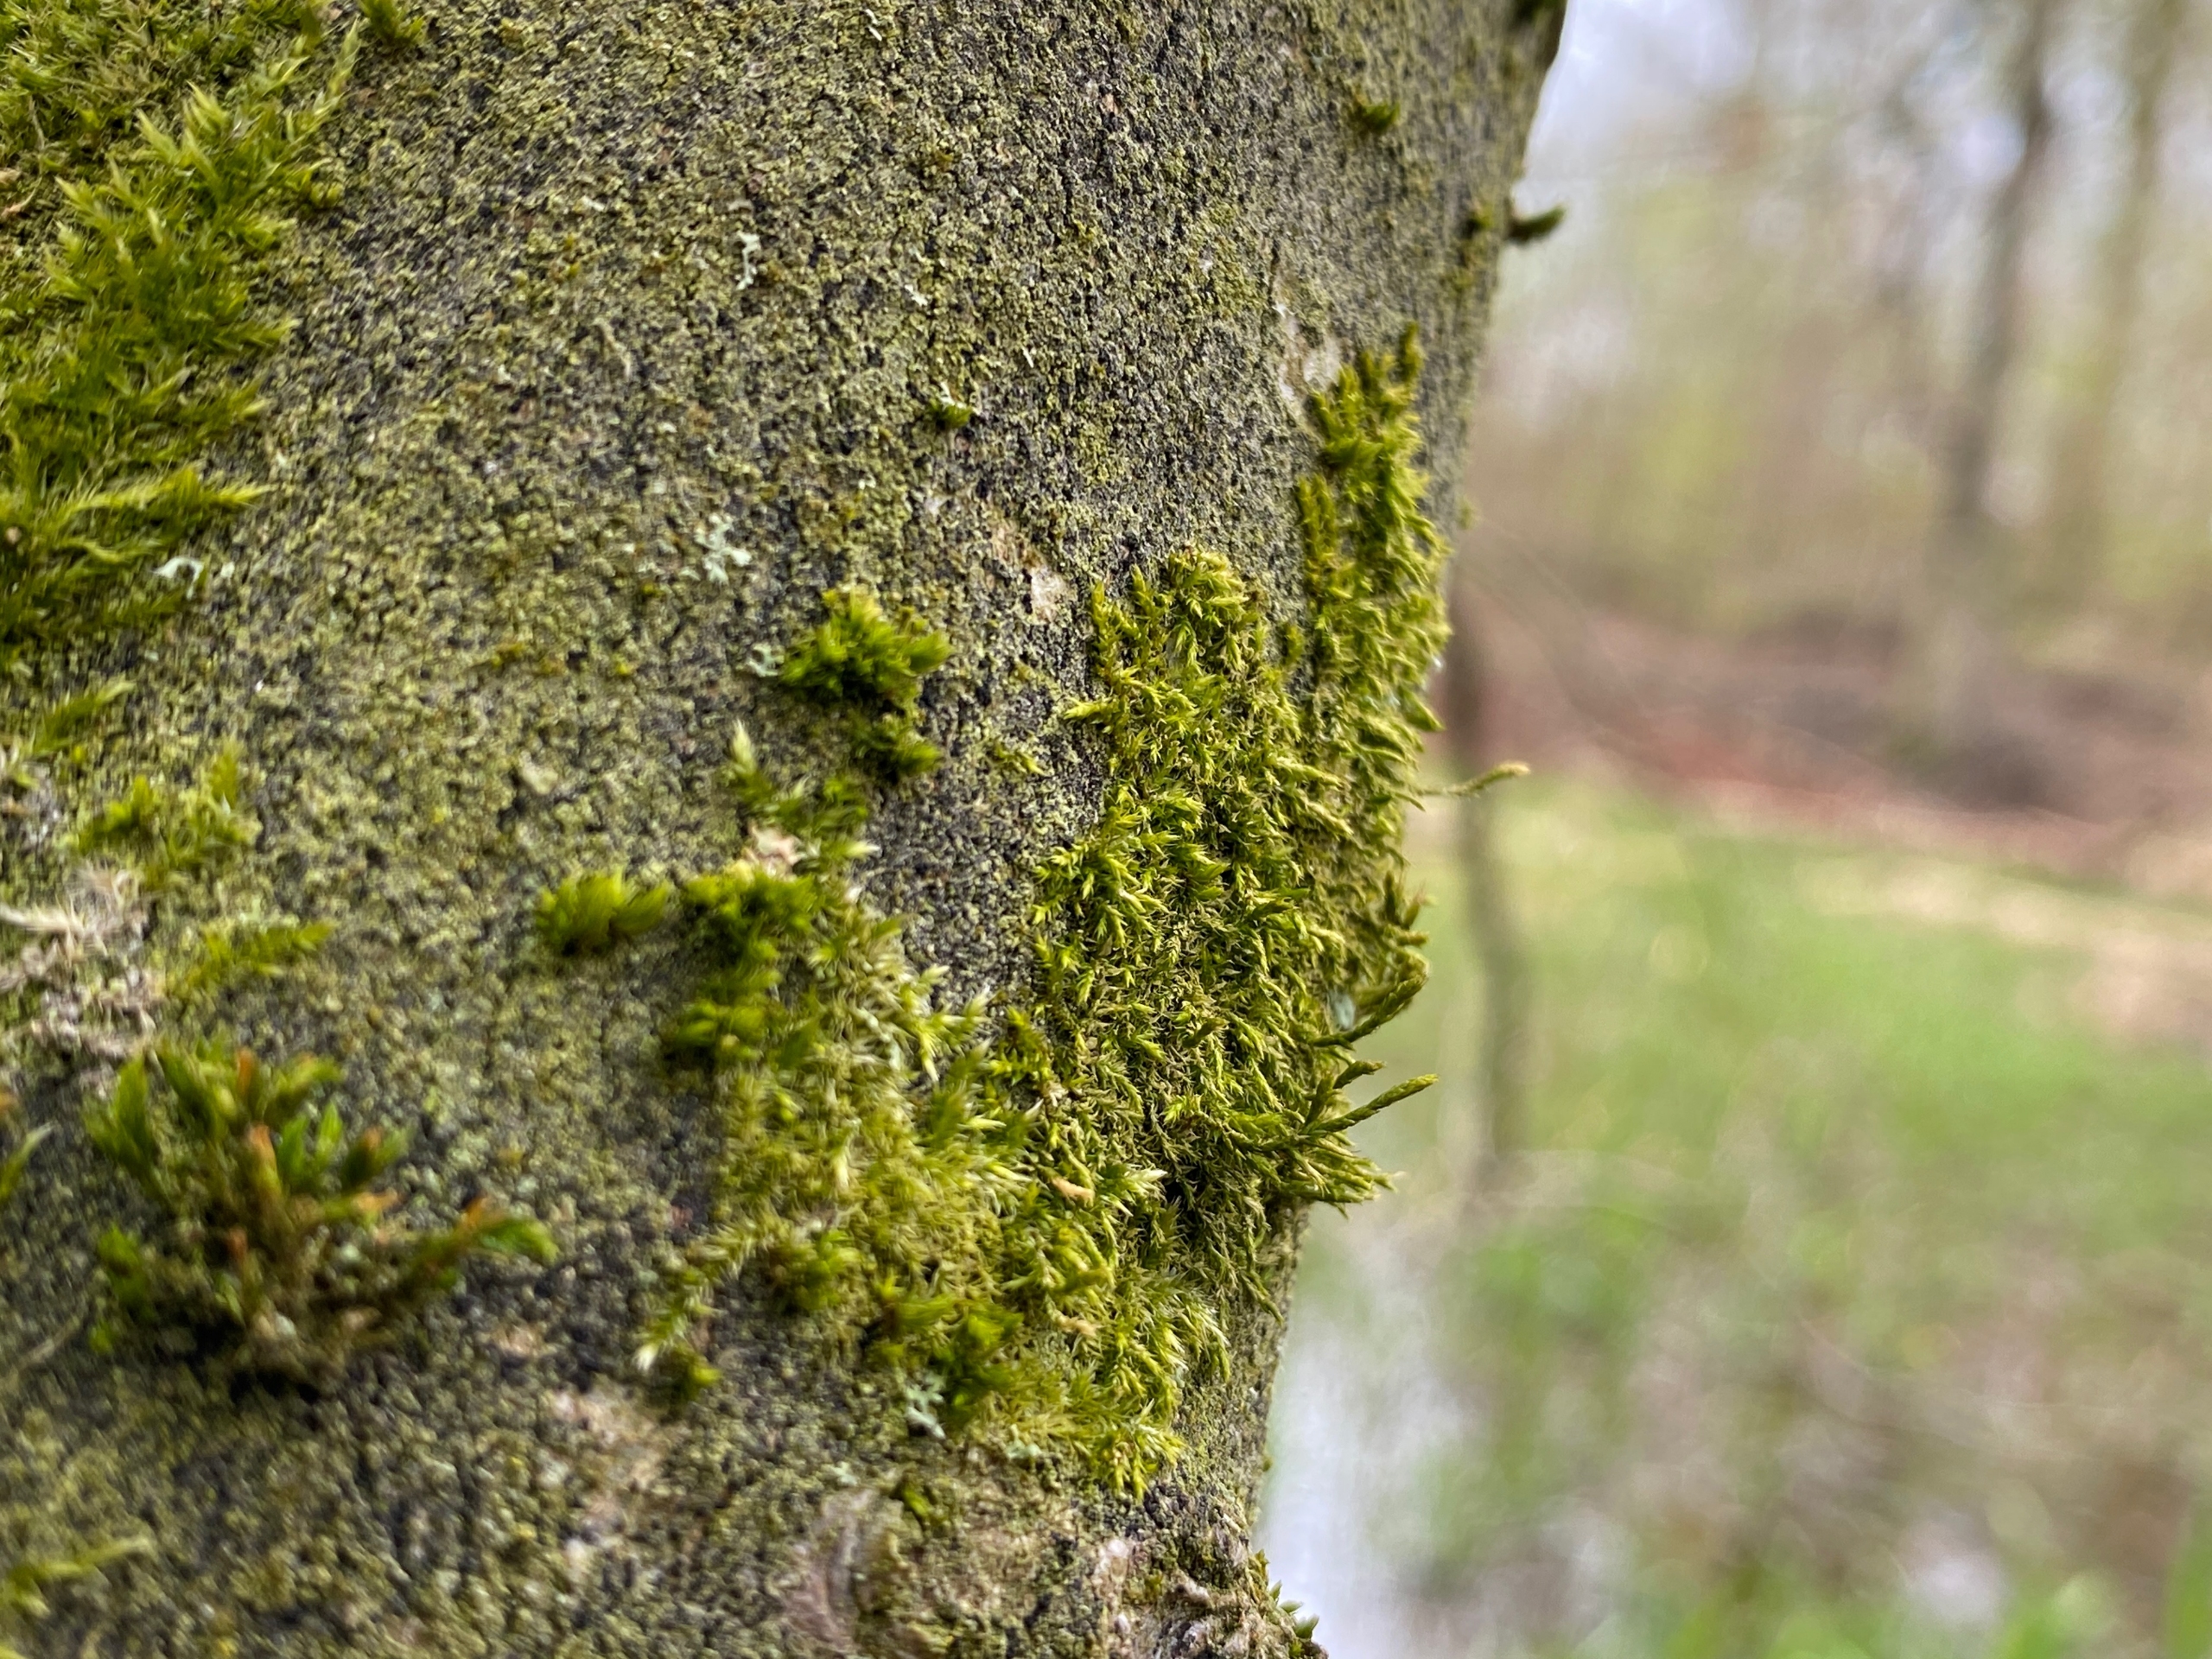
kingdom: Plantae
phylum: Bryophyta
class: Bryopsida
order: Hypnales
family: Cryphaeaceae
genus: Cryphaea
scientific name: Cryphaea heteromalla
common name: Bark-dækmos
